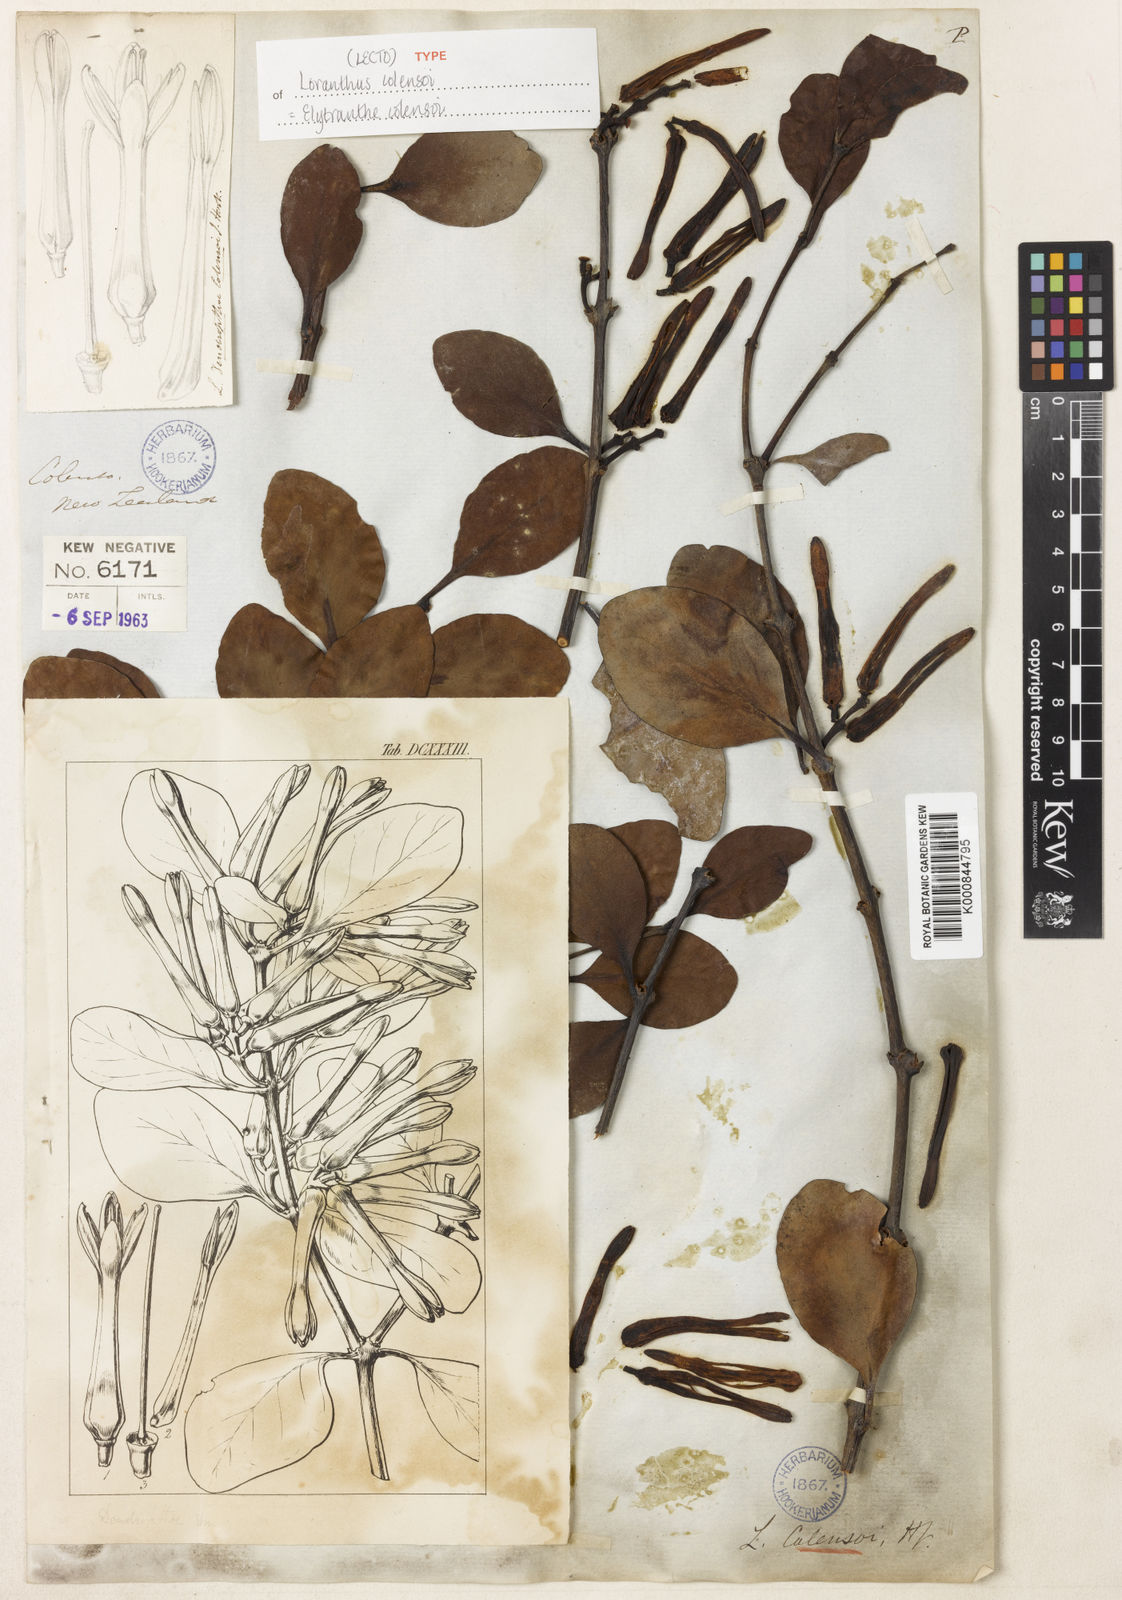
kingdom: Plantae
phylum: Tracheophyta
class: Magnoliopsida
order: Santalales
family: Loranthaceae
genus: Peraxilla
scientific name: Peraxilla colensoi
